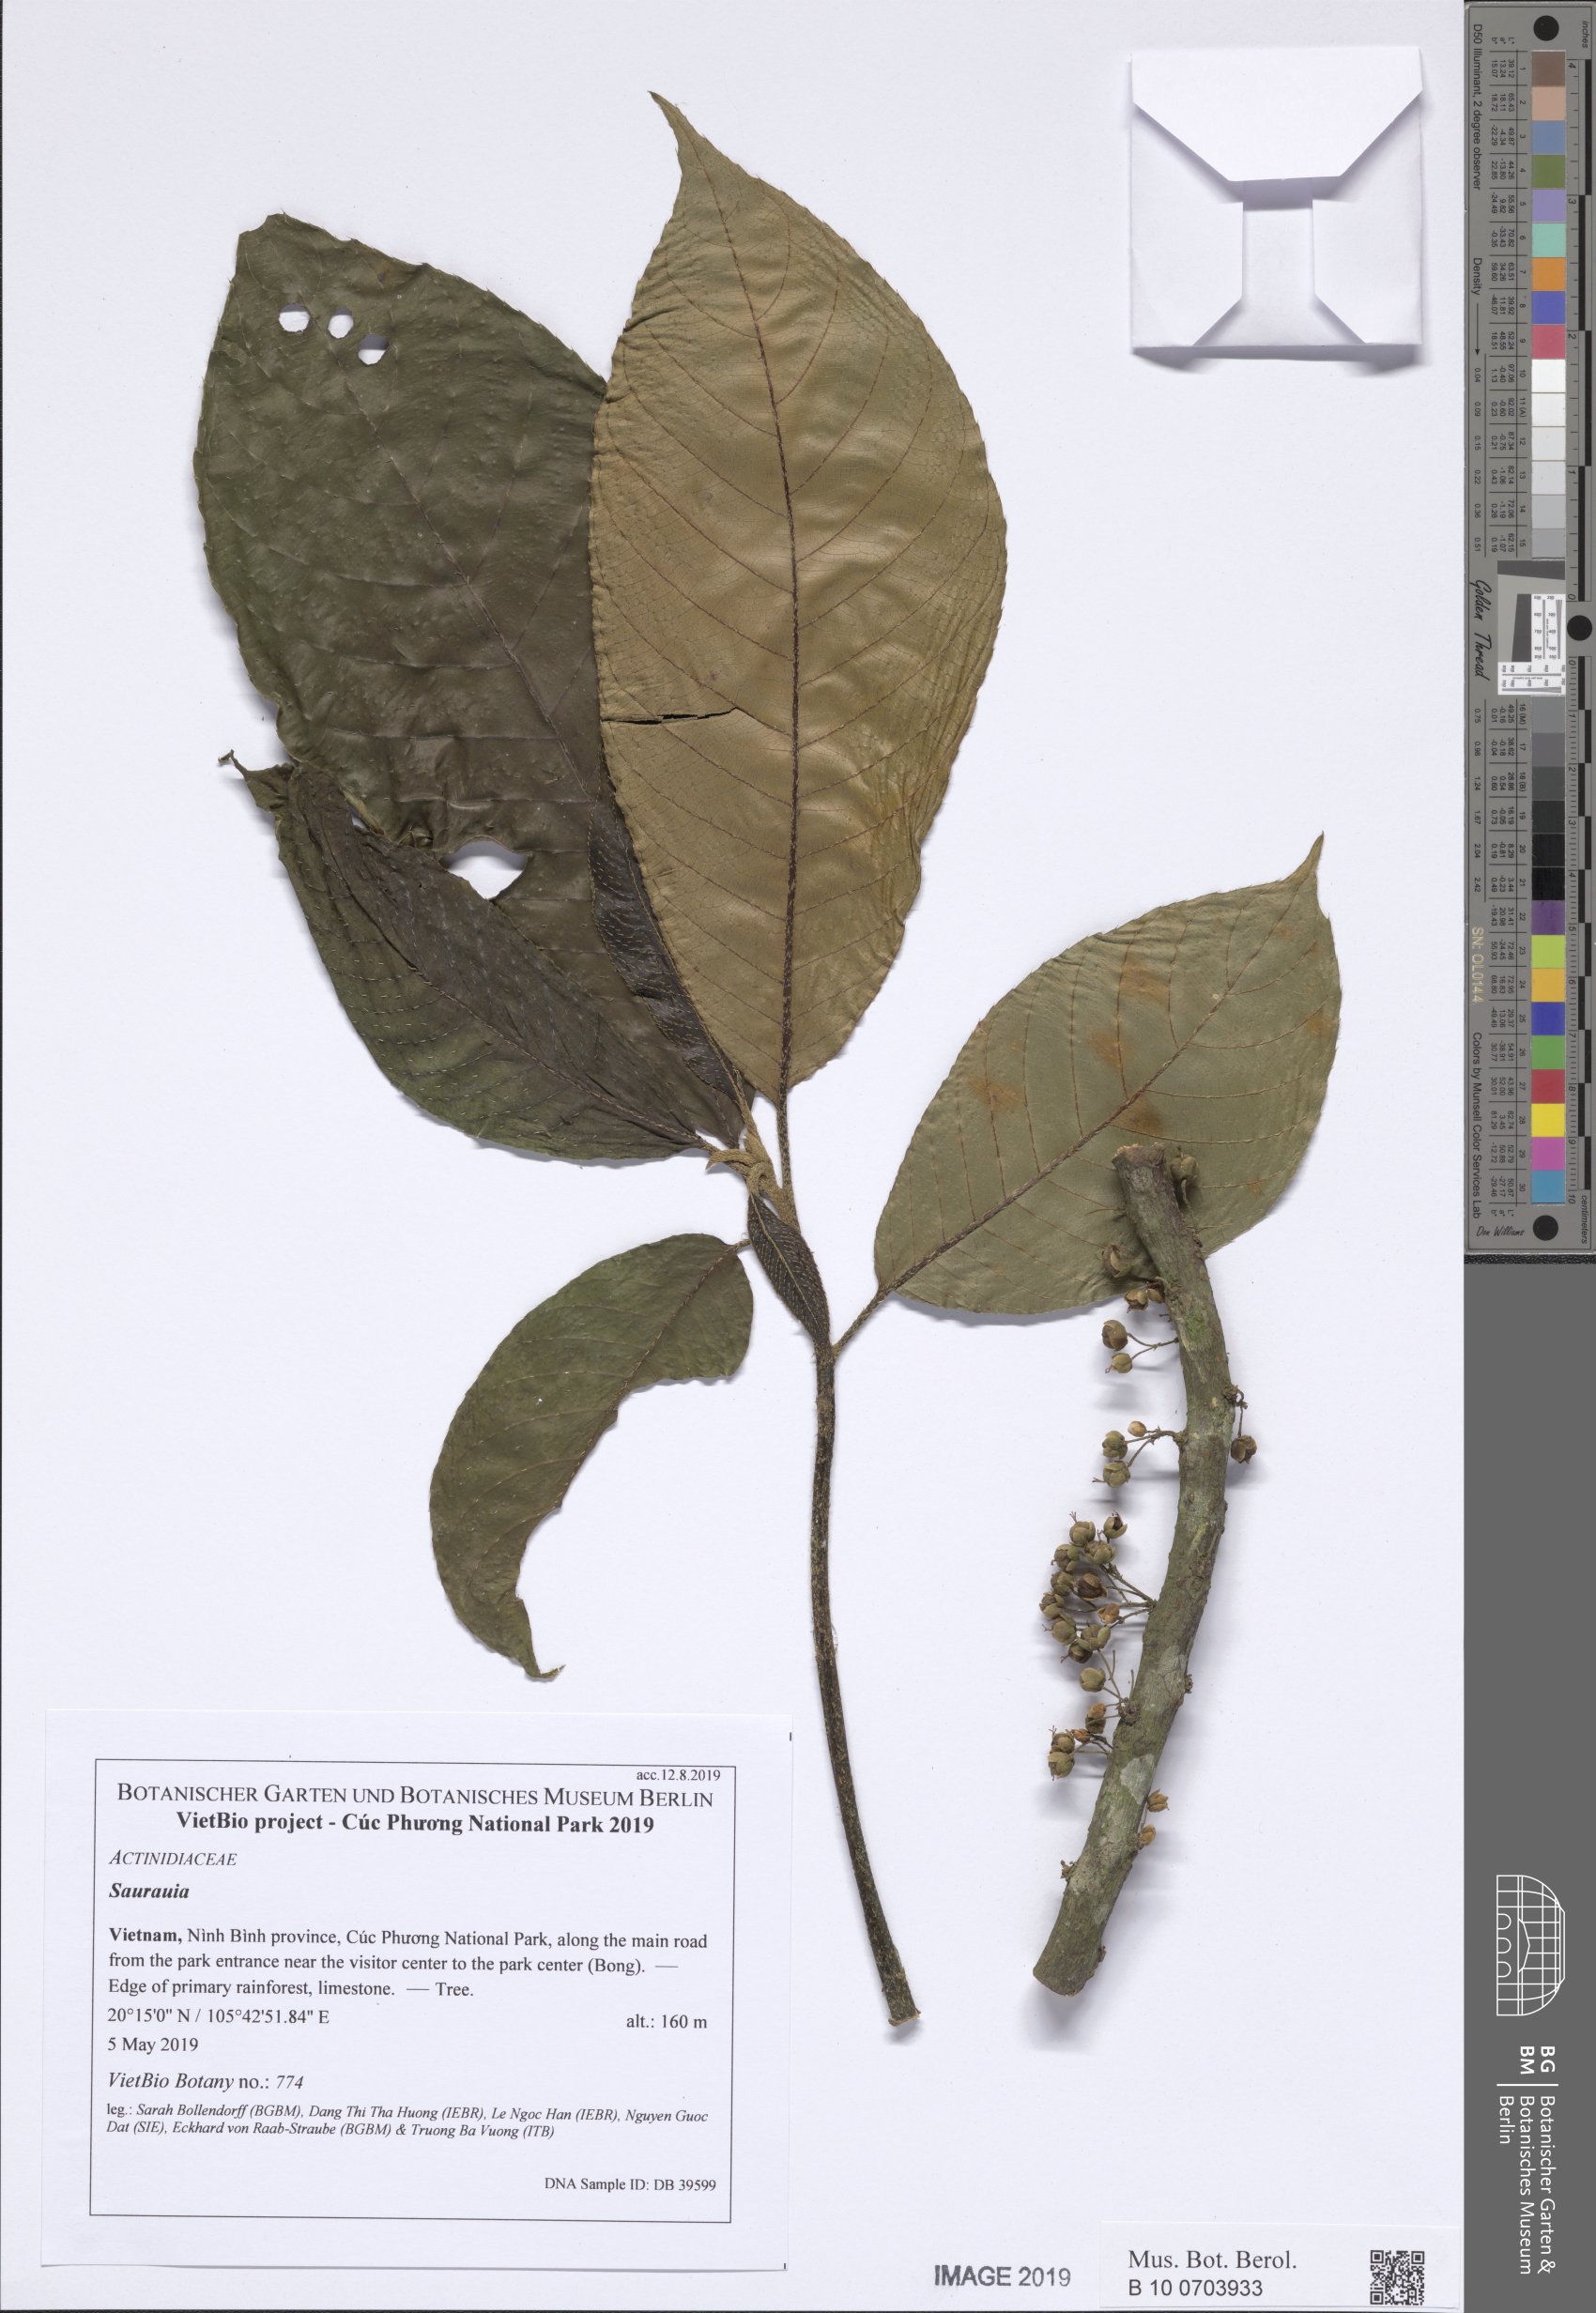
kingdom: Plantae
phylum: Tracheophyta
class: Magnoliopsida
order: Ericales
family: Actinidiaceae
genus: Saurauia
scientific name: Saurauia roxburghii
